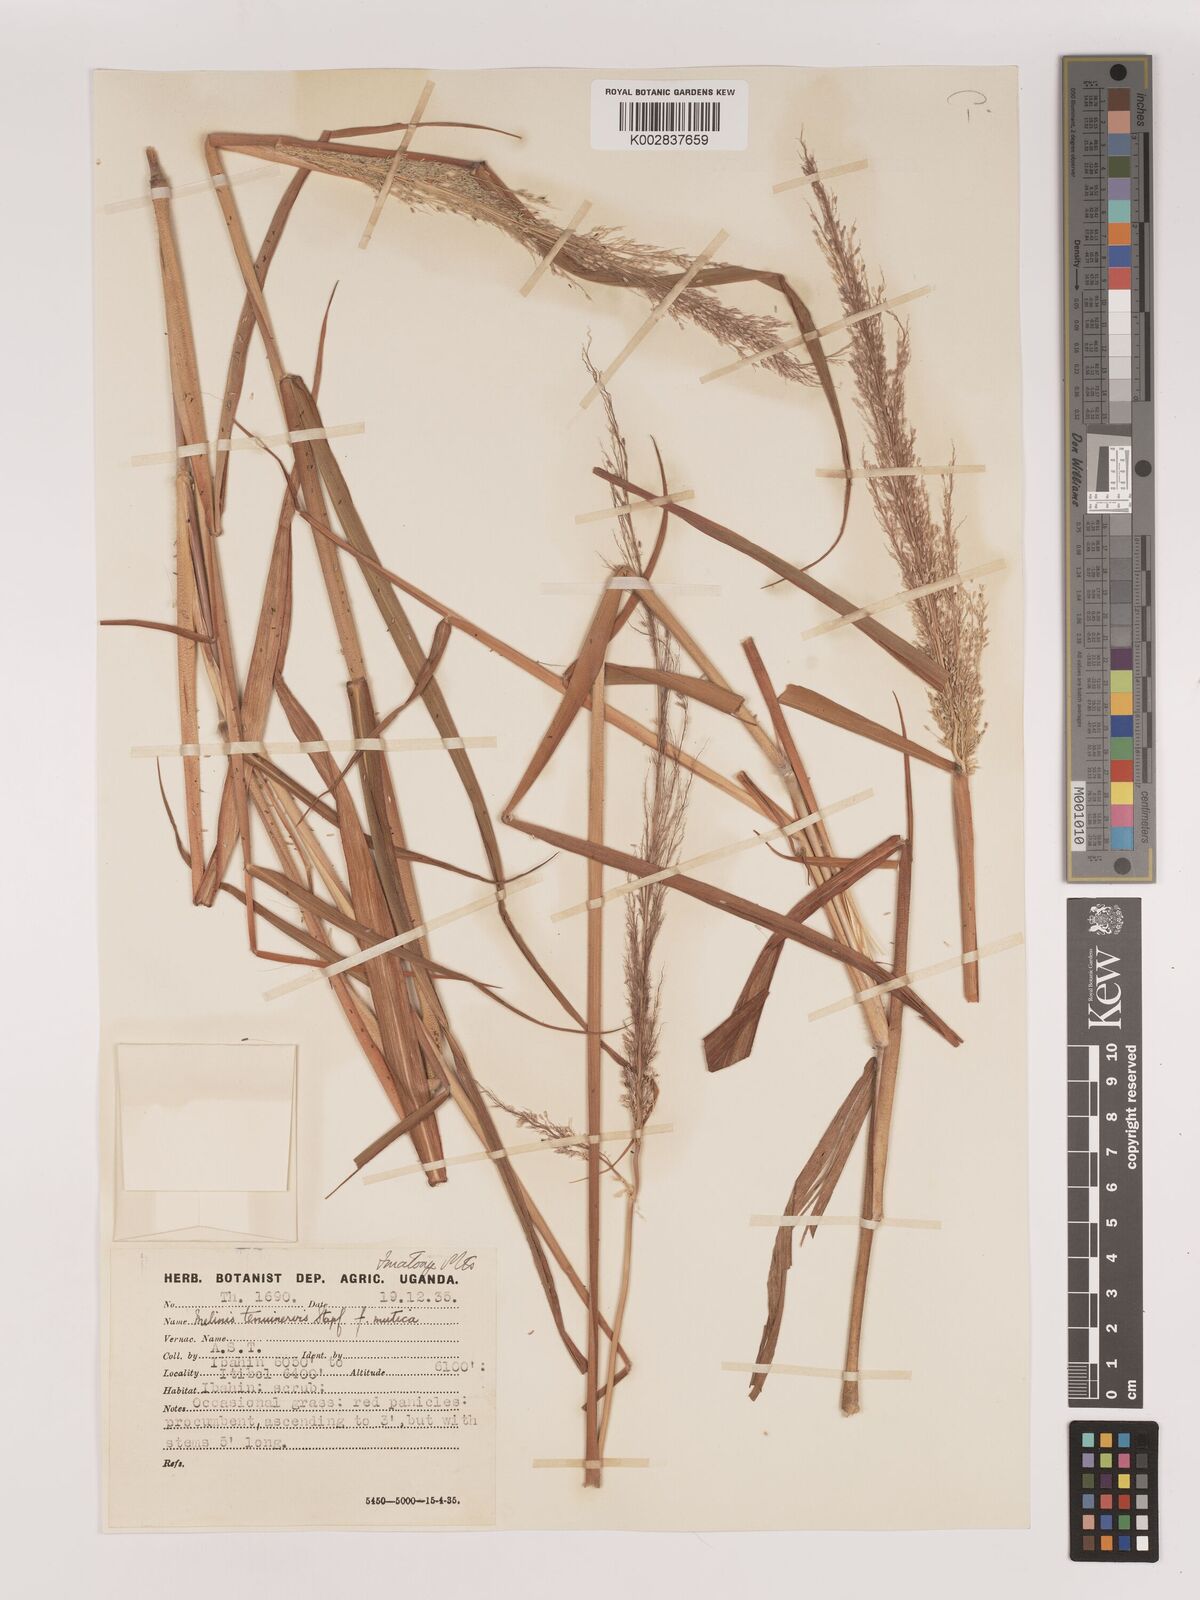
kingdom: Plantae
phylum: Tracheophyta
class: Liliopsida
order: Poales
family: Poaceae
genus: Melinis
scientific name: Melinis minutiflora
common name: Molassesgrass
